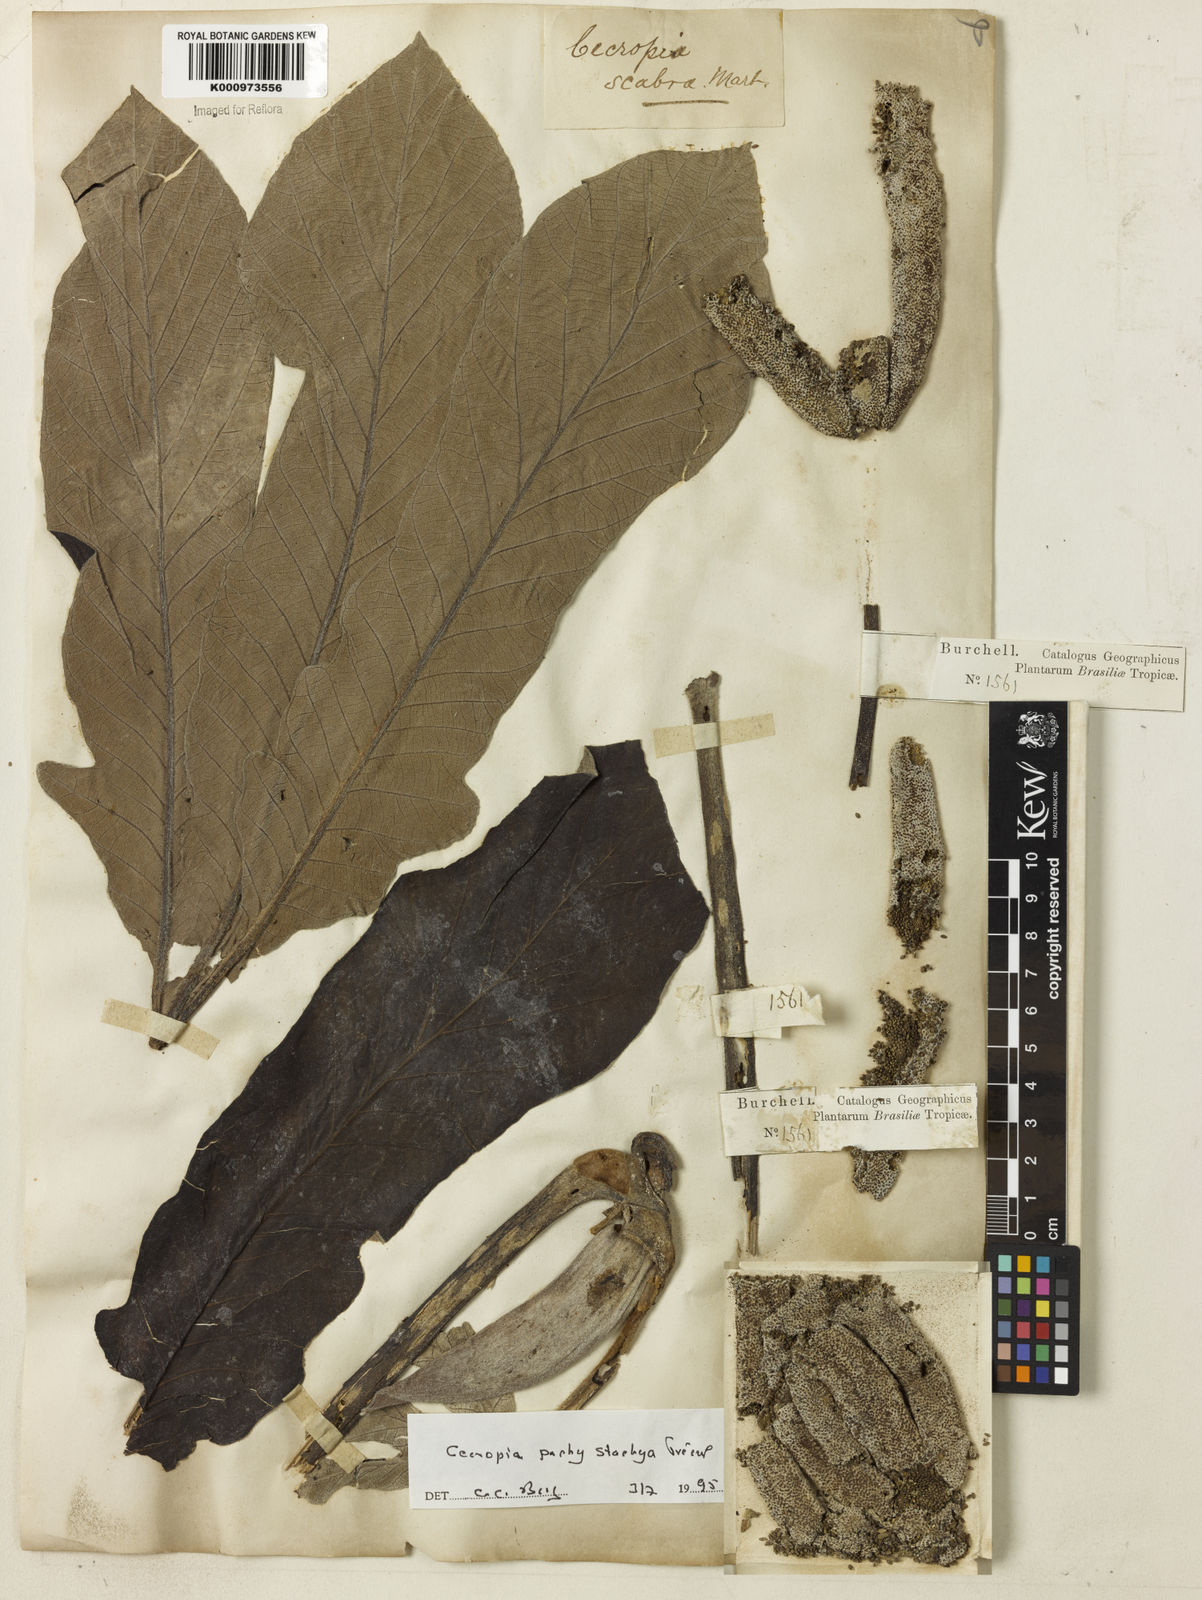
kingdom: Plantae
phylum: Tracheophyta
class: Magnoliopsida
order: Rosales
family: Urticaceae
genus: Cecropia
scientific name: Cecropia
